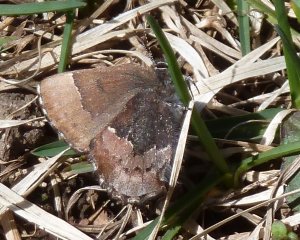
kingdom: Animalia
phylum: Arthropoda
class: Insecta
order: Lepidoptera
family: Lycaenidae
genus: Incisalia
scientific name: Incisalia henrici
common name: Henry's Elfin
